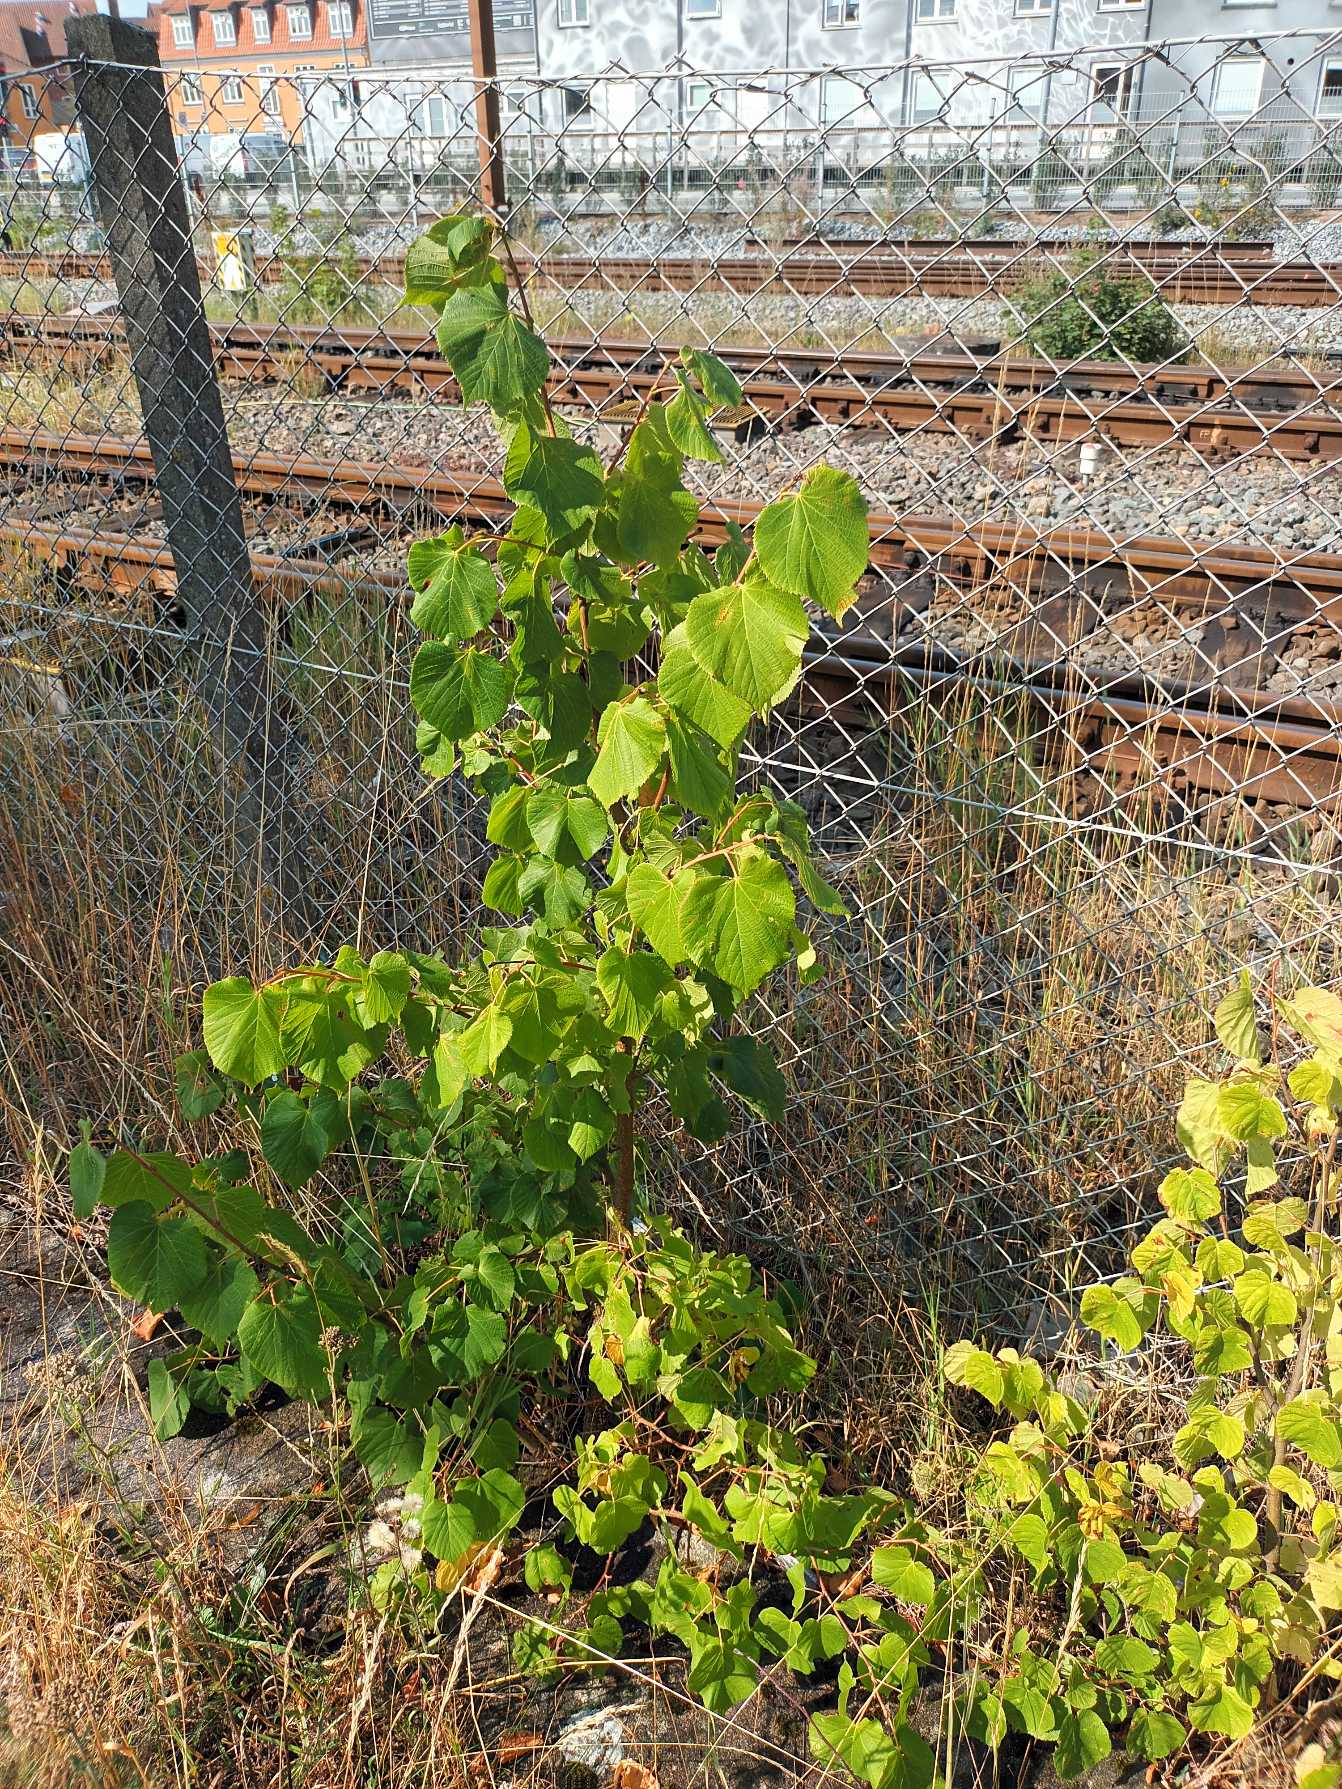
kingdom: Plantae
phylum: Tracheophyta
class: Magnoliopsida
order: Malvales
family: Malvaceae
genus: Tilia
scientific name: Tilia europaea
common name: Park-lind
